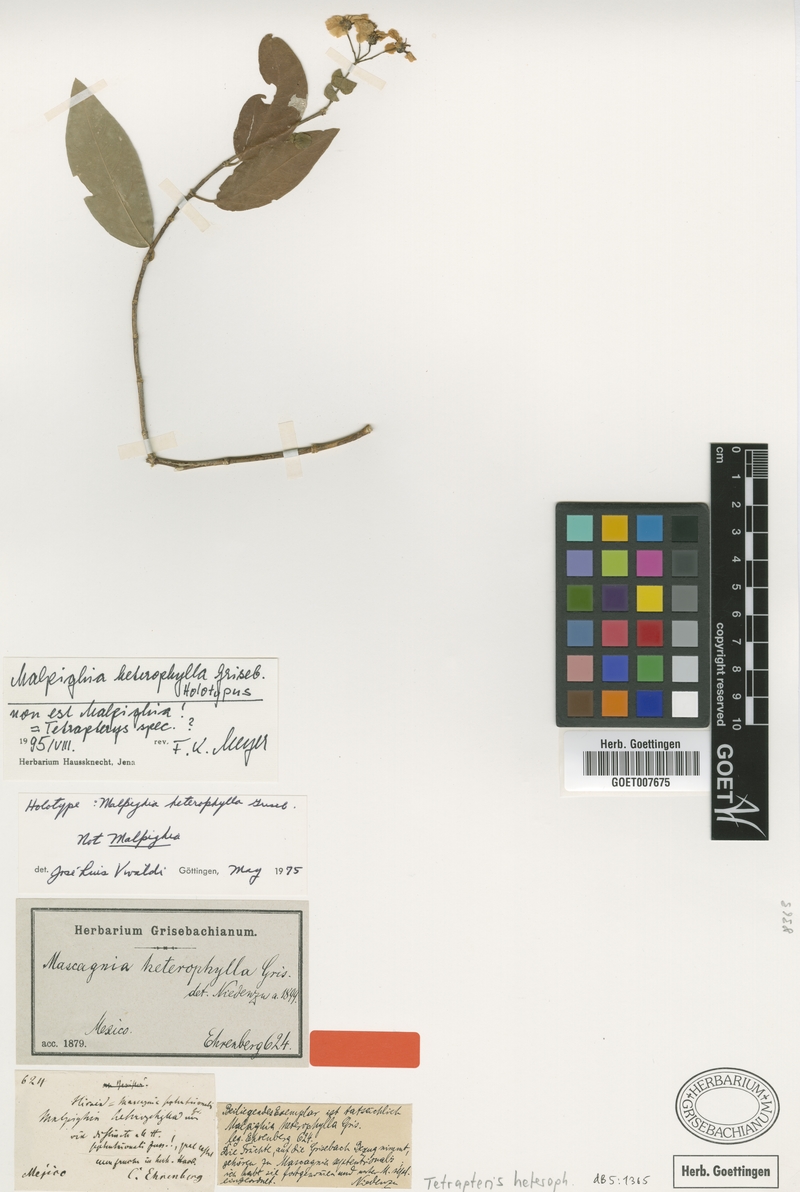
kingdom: Plantae
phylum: Tracheophyta
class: Magnoliopsida
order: Malpighiales
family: Malpighiaceae
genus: Tetrapterys
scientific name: Tetrapterys heterophylla
